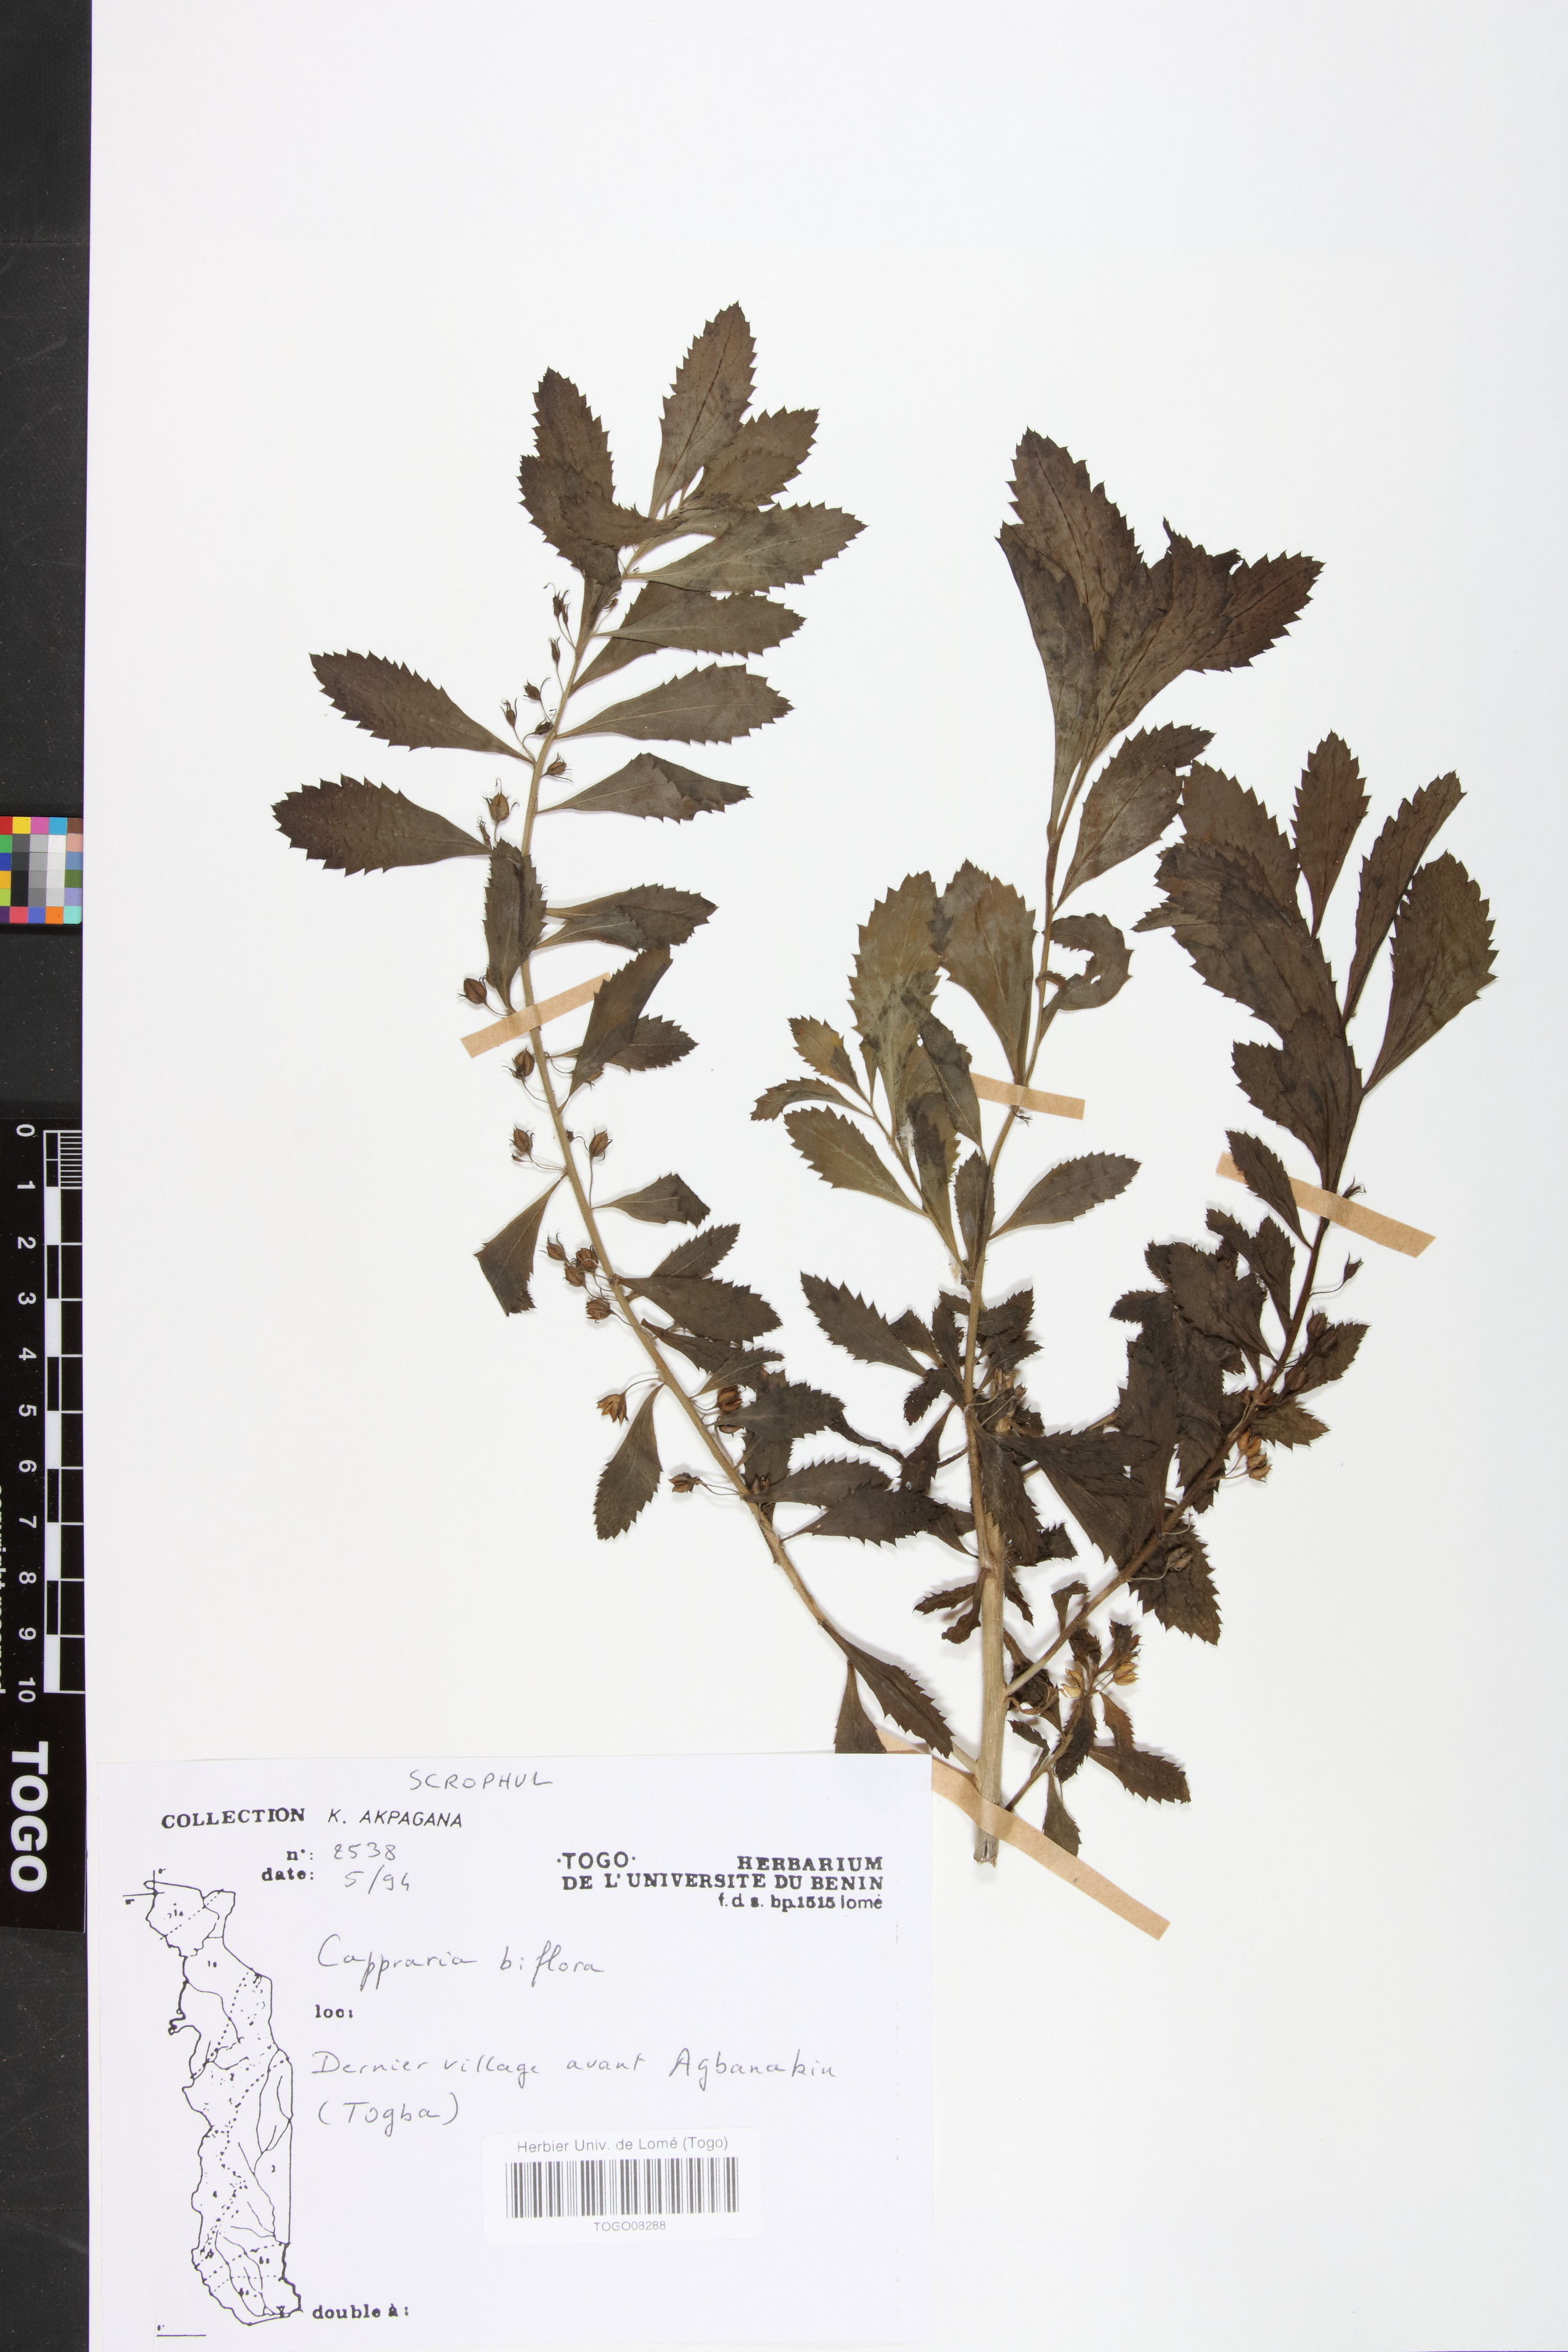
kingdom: Plantae
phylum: Tracheophyta
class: Magnoliopsida
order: Lamiales
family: Scrophulariaceae
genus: Capraria
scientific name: Capraria biflora
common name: Goatweed
